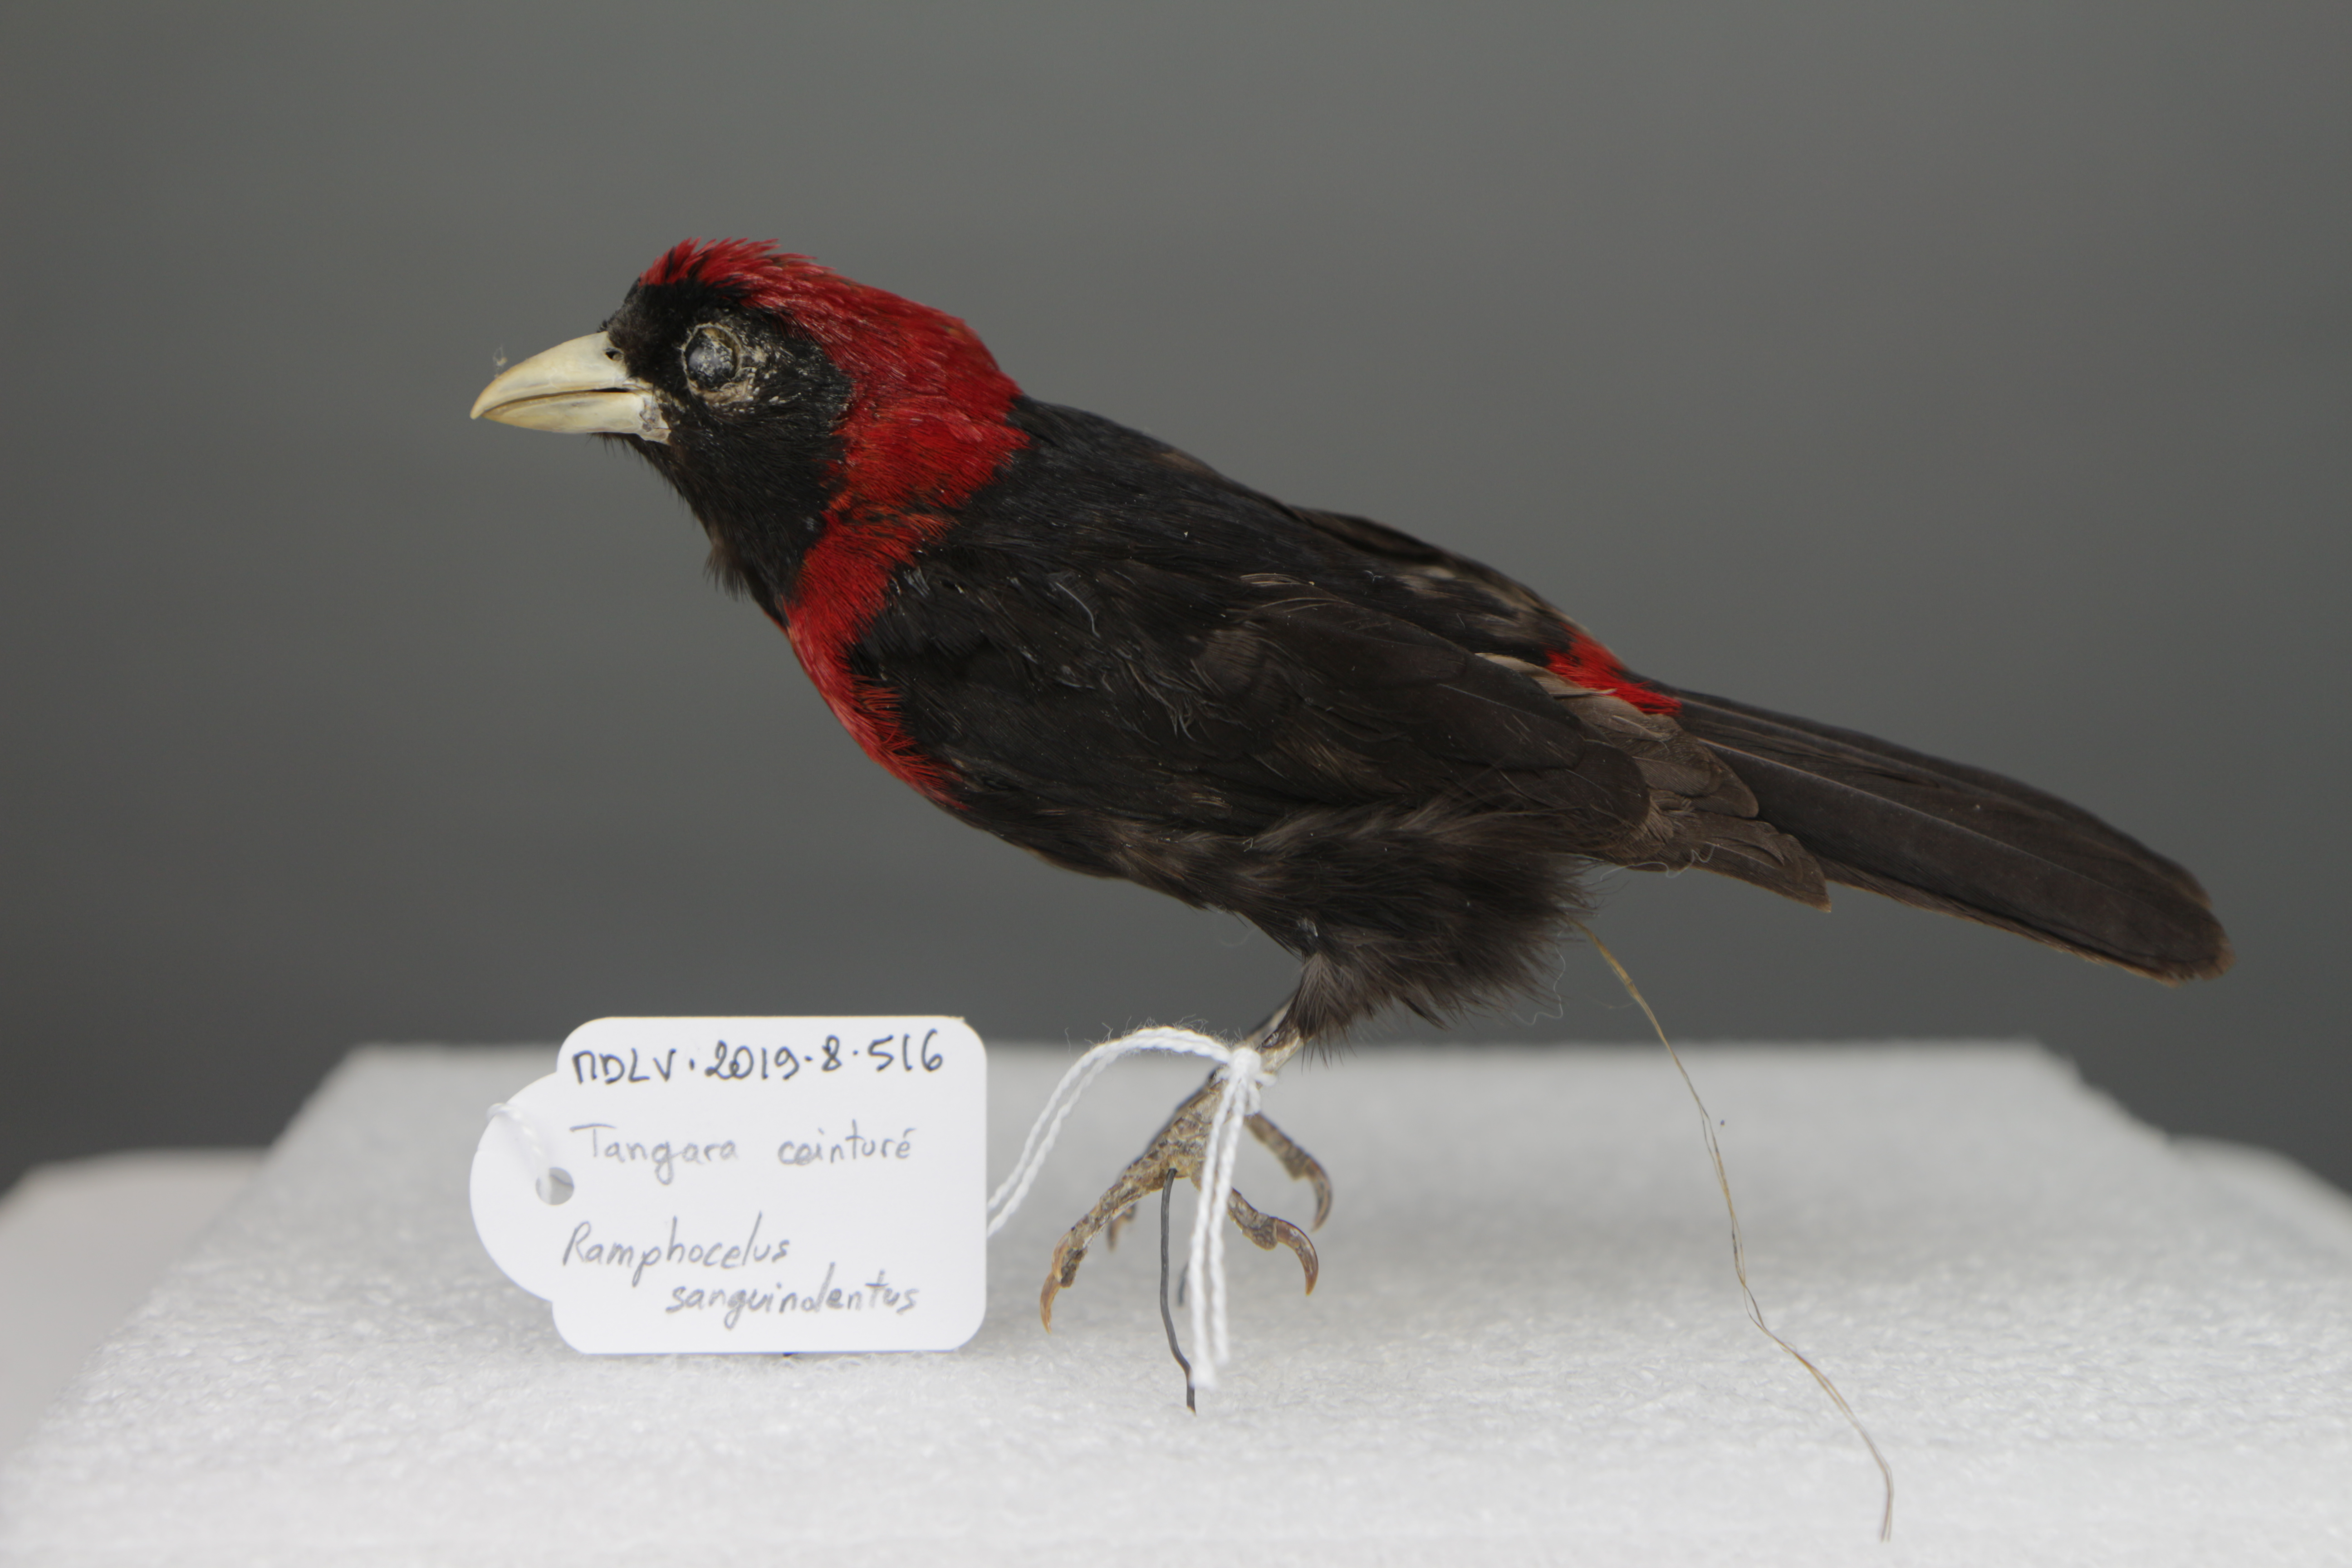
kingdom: Animalia
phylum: Chordata
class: Aves
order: Passeriformes
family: Thraupidae
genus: Ramphocelus
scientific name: Ramphocelus sanguinolentus
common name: Crimson-collared tanager
